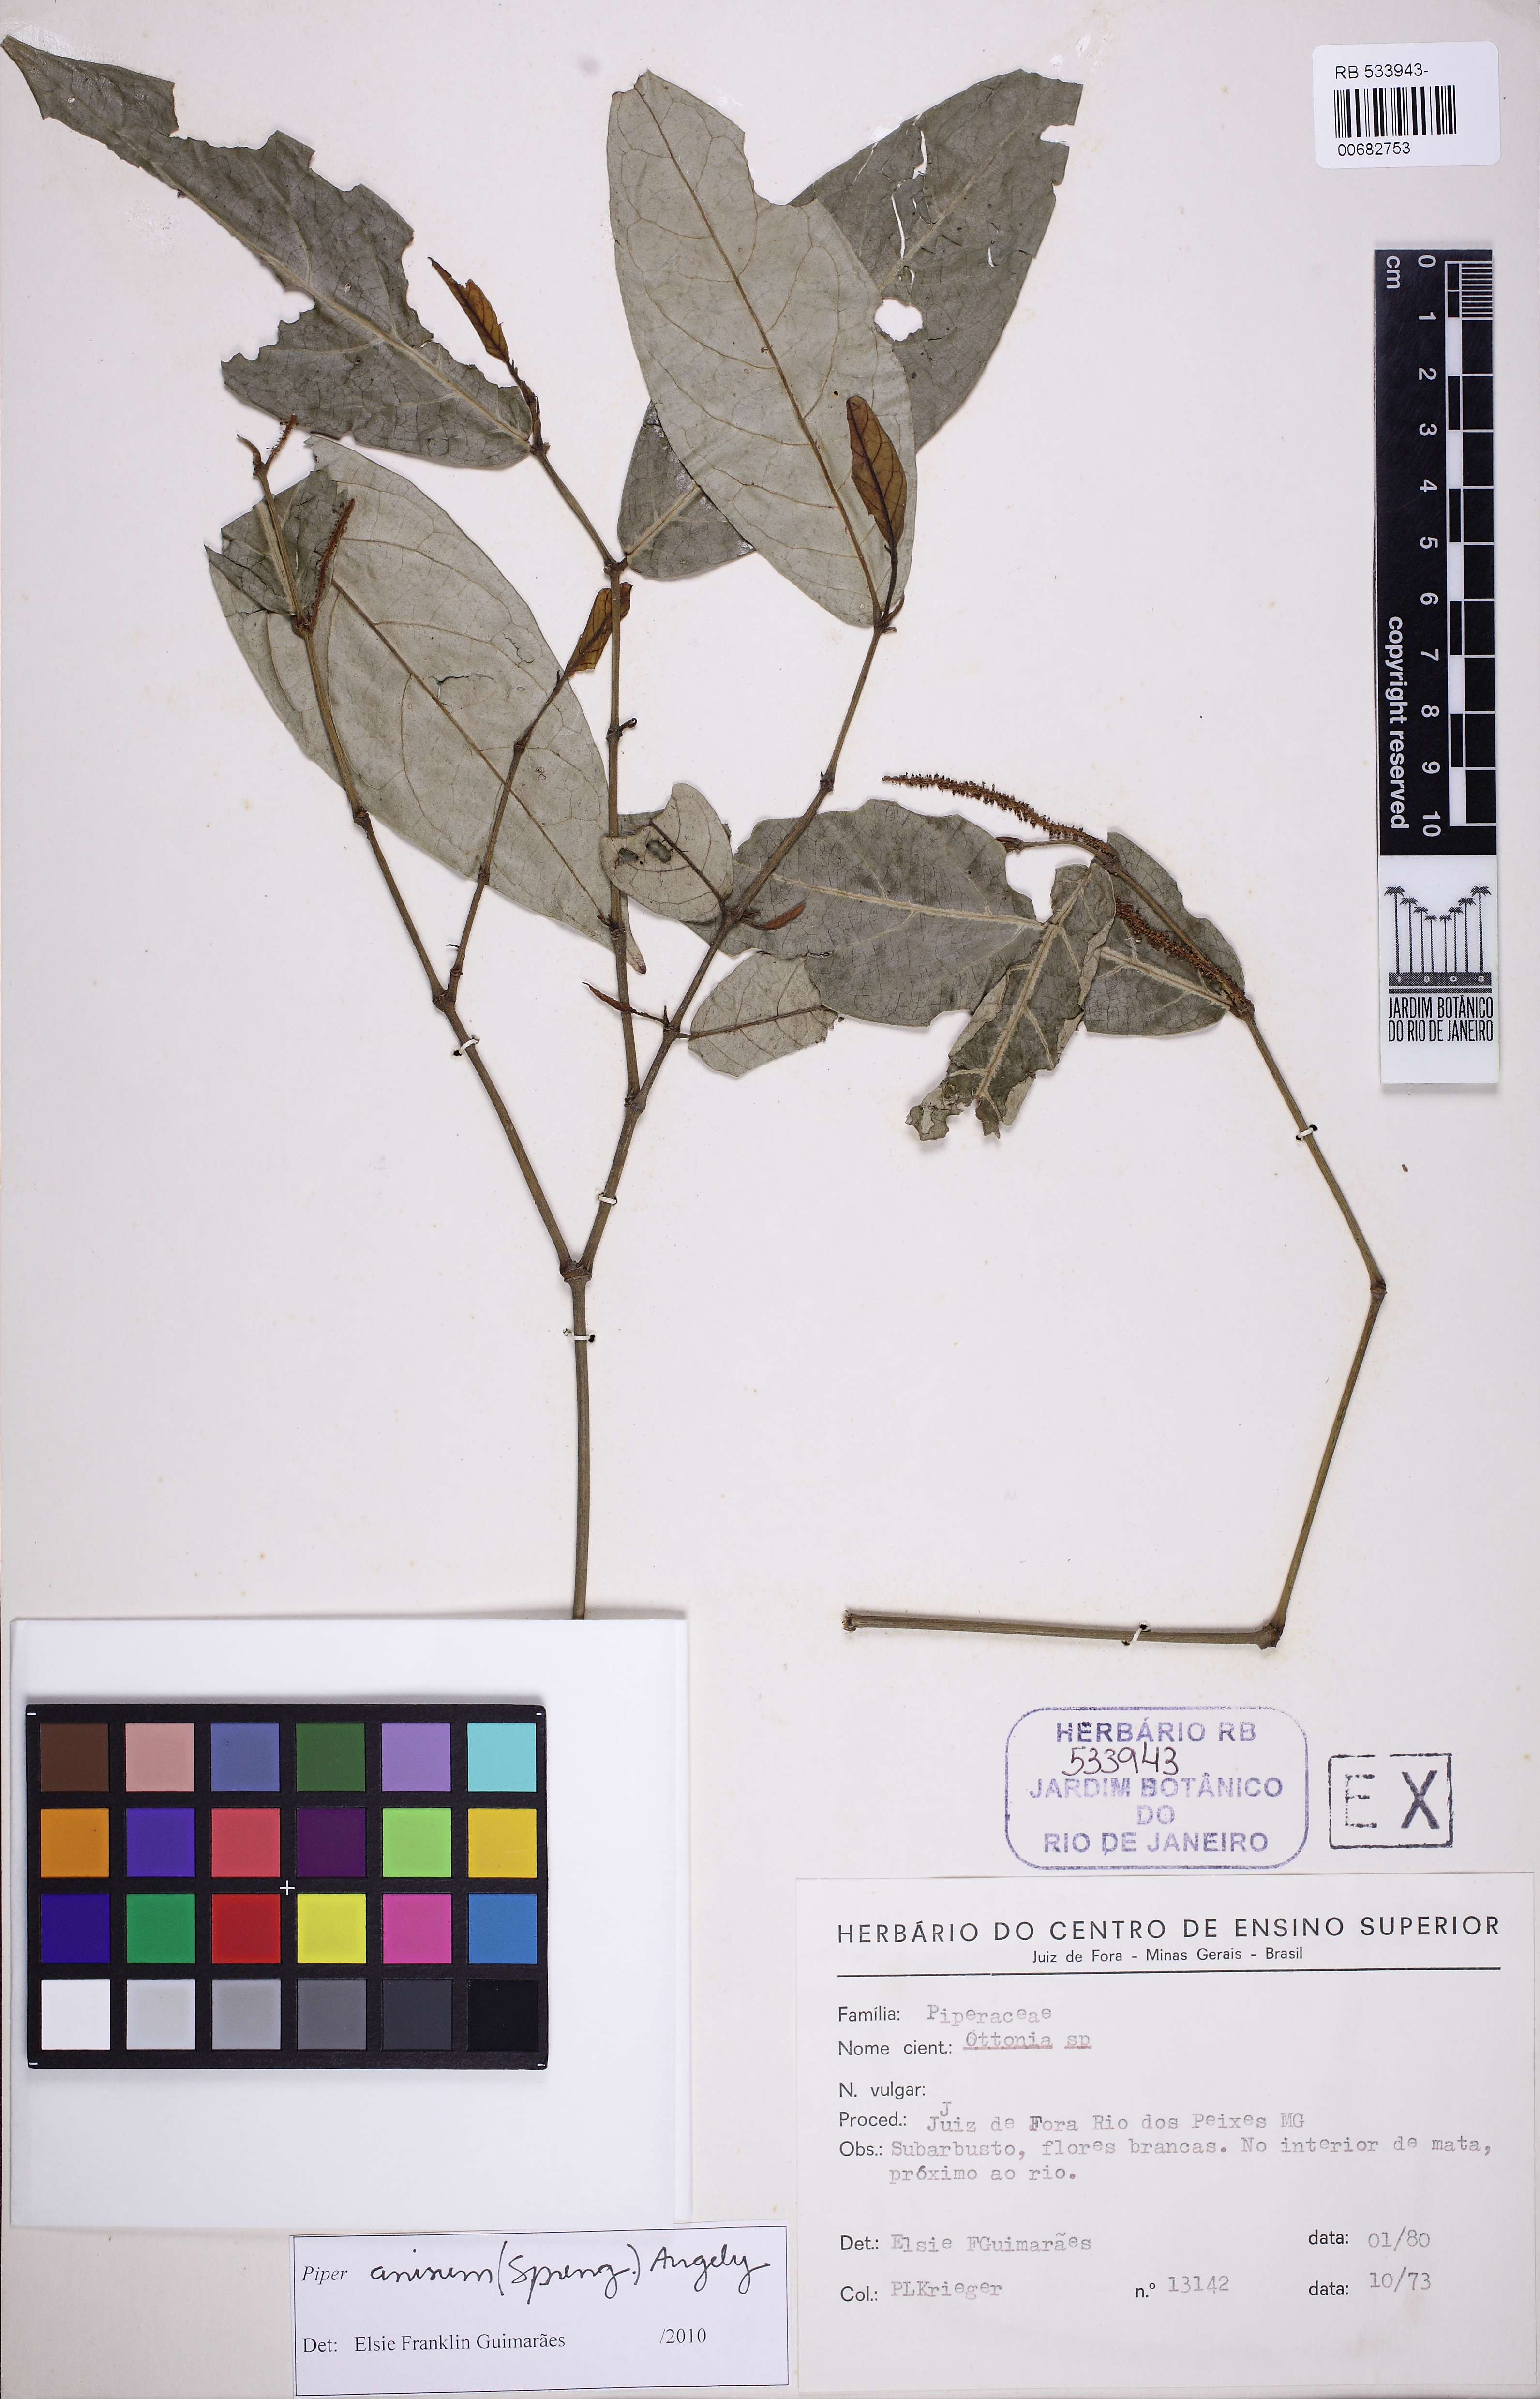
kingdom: Plantae
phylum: Tracheophyta
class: Magnoliopsida
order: Piperales
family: Piperaceae
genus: Piper
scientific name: Piper anisum
